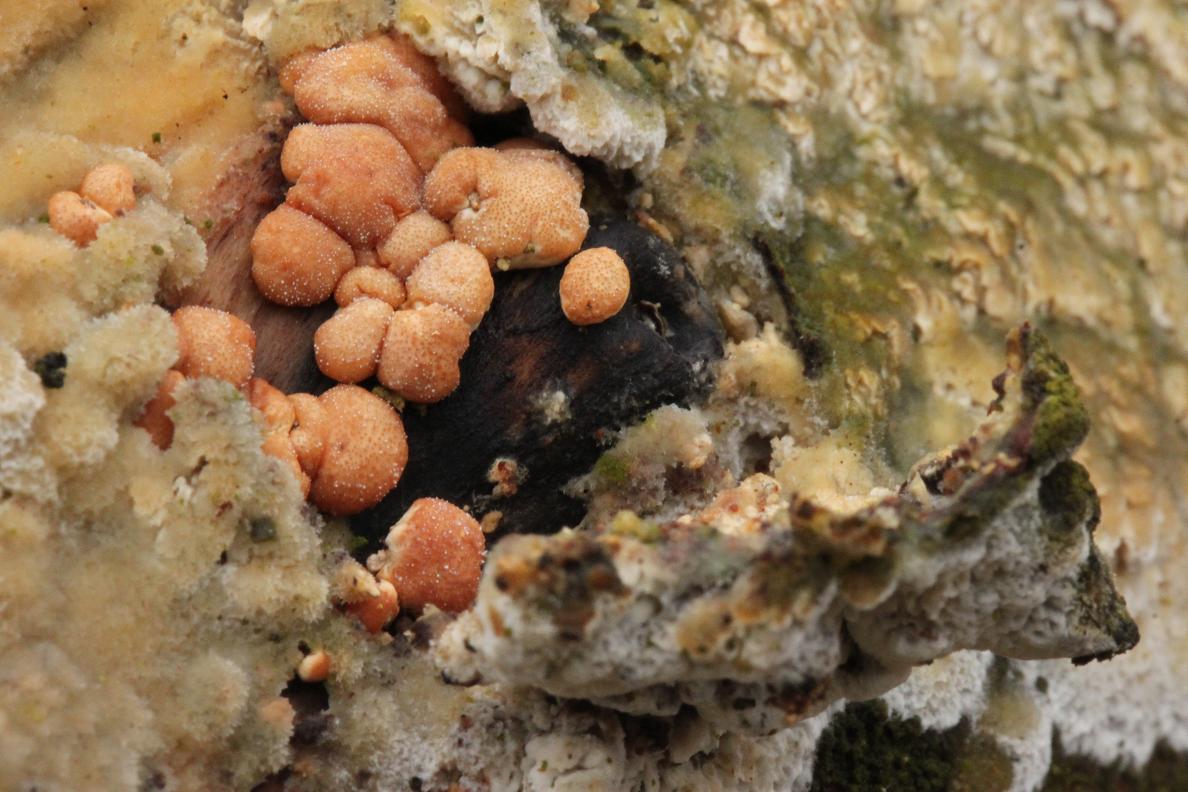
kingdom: Fungi
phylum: Ascomycota
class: Sordariomycetes
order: Hypocreales
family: Hypocreaceae
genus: Trichoderma
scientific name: Trichoderma
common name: kødkerne
